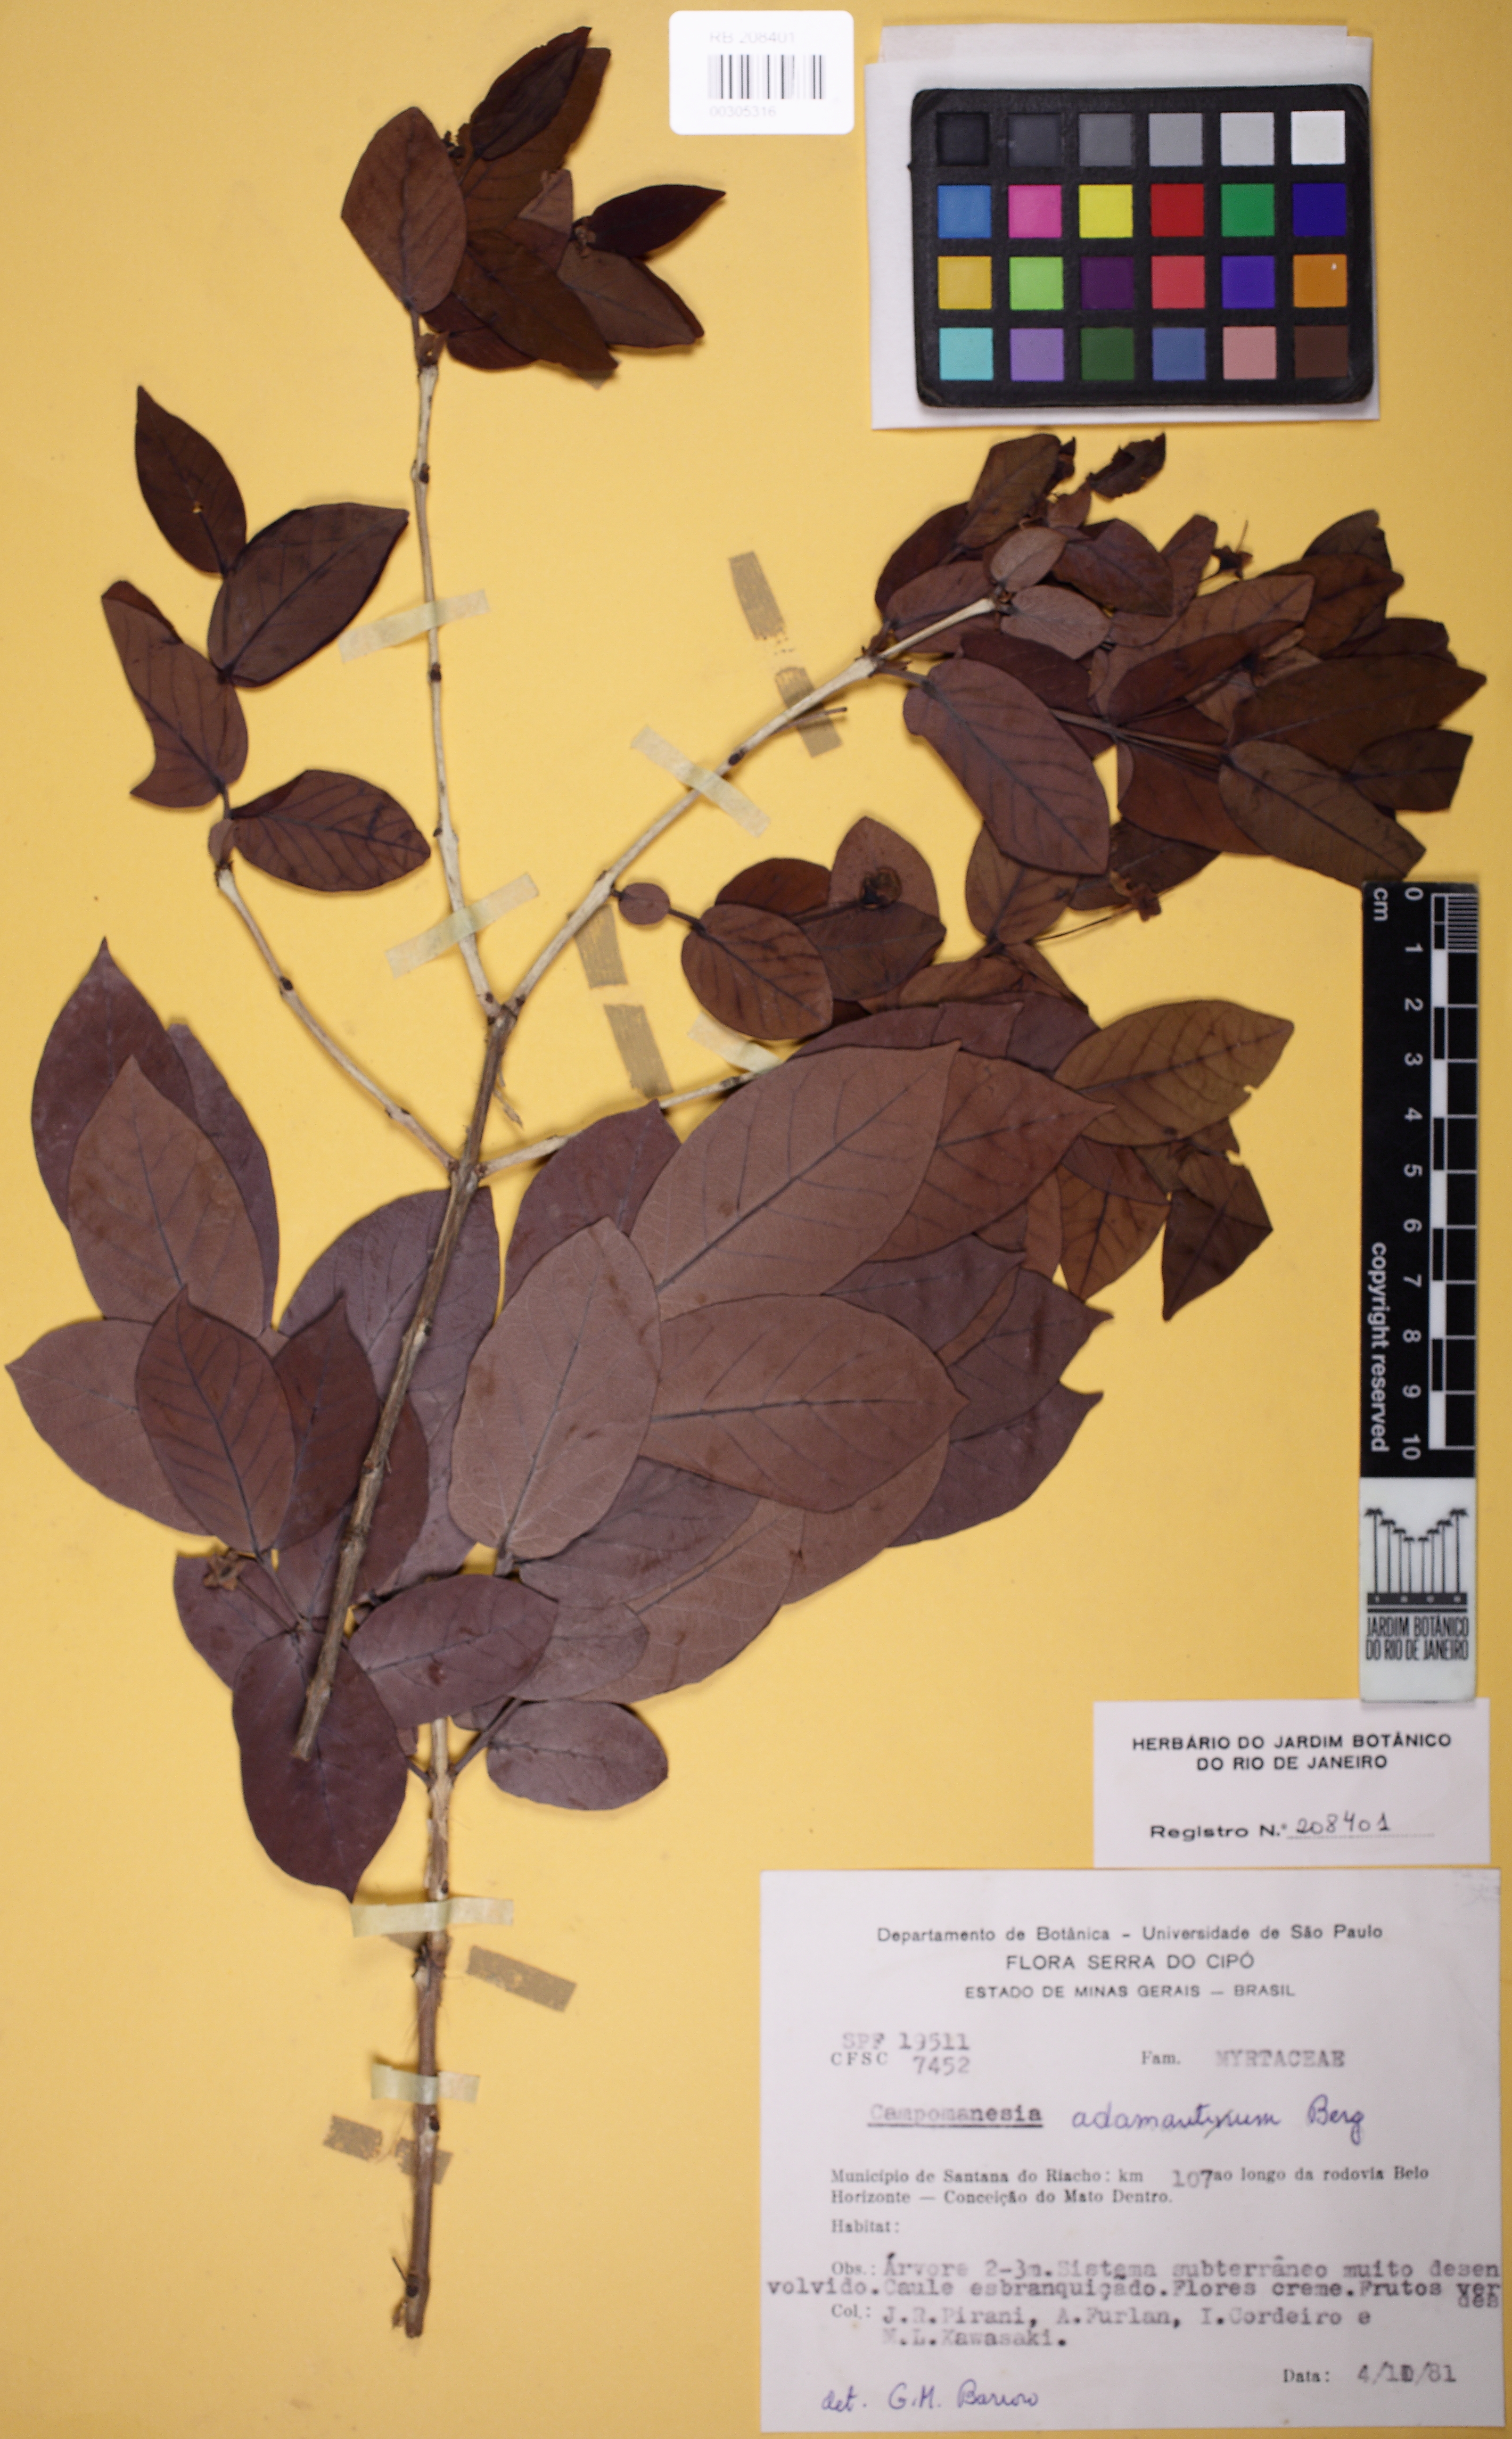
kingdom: Plantae
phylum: Tracheophyta
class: Magnoliopsida
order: Myrtales
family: Myrtaceae
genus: Campomanesia
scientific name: Campomanesia adamantium
